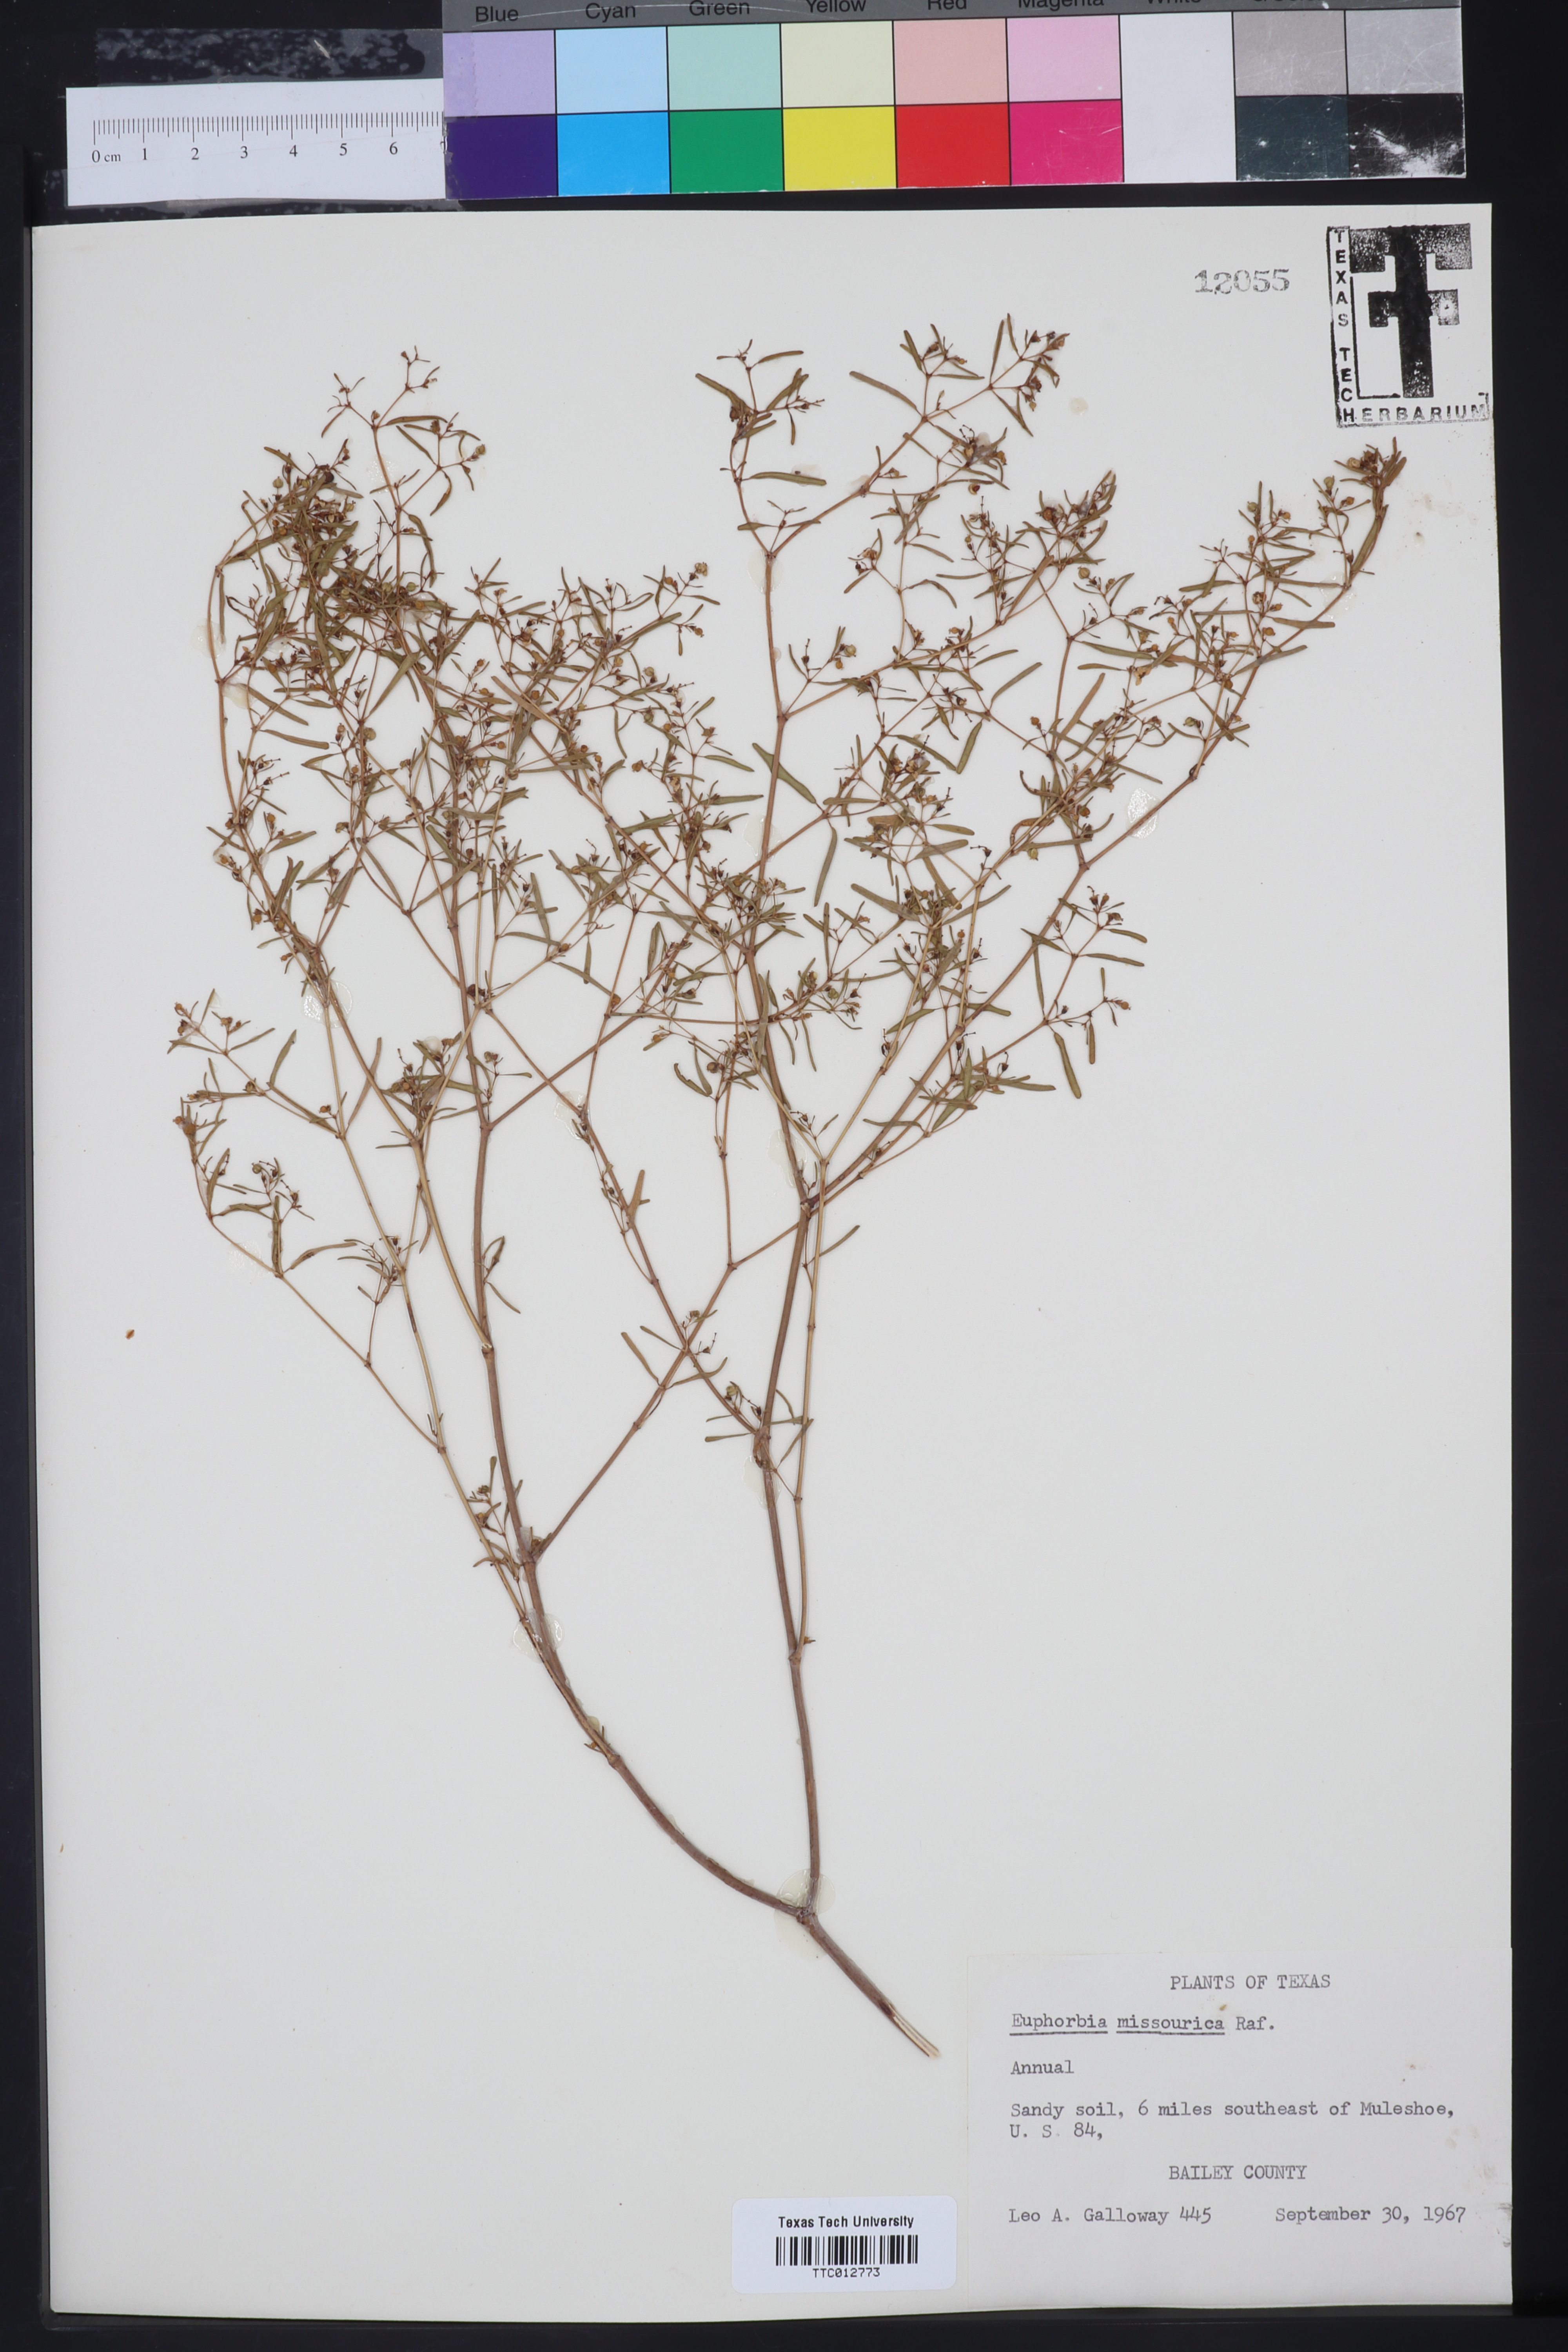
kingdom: Plantae
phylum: Tracheophyta
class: Magnoliopsida
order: Malpighiales
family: Euphorbiaceae
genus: Euphorbia
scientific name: Euphorbia missurica
